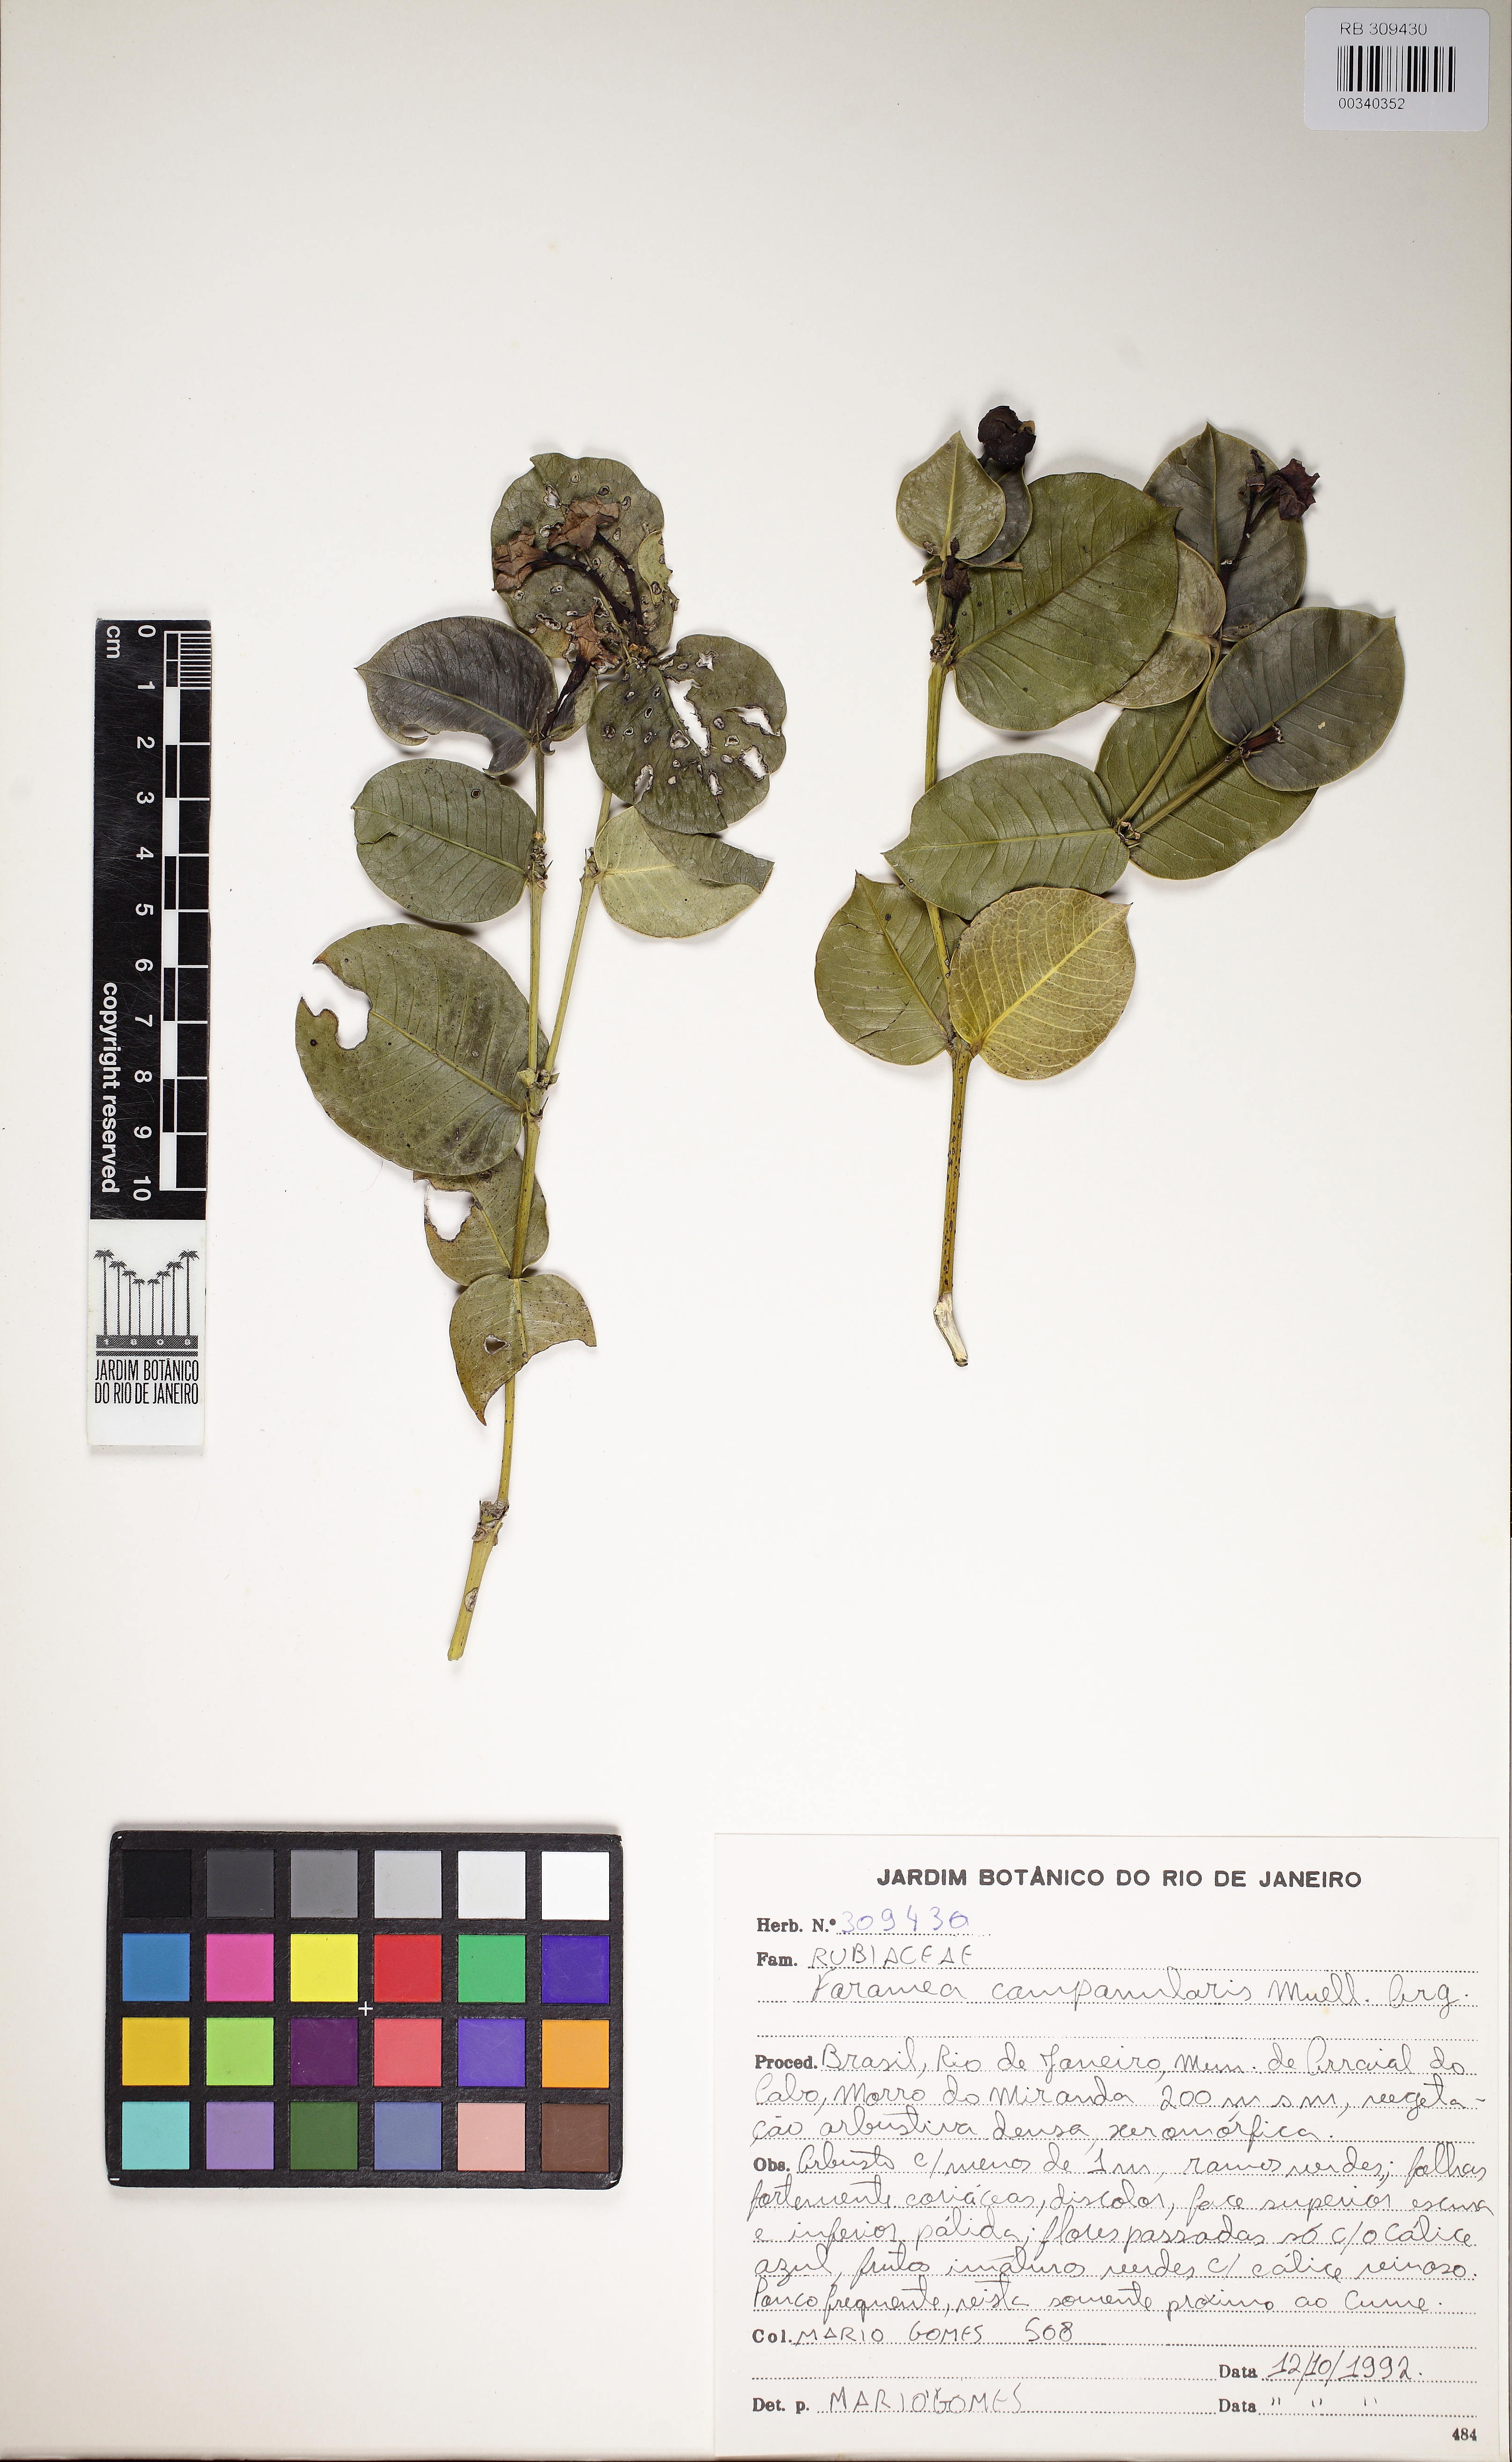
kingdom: Plantae
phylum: Tracheophyta
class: Magnoliopsida
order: Gentianales
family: Rubiaceae
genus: Faramea
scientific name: Faramea campanularis
